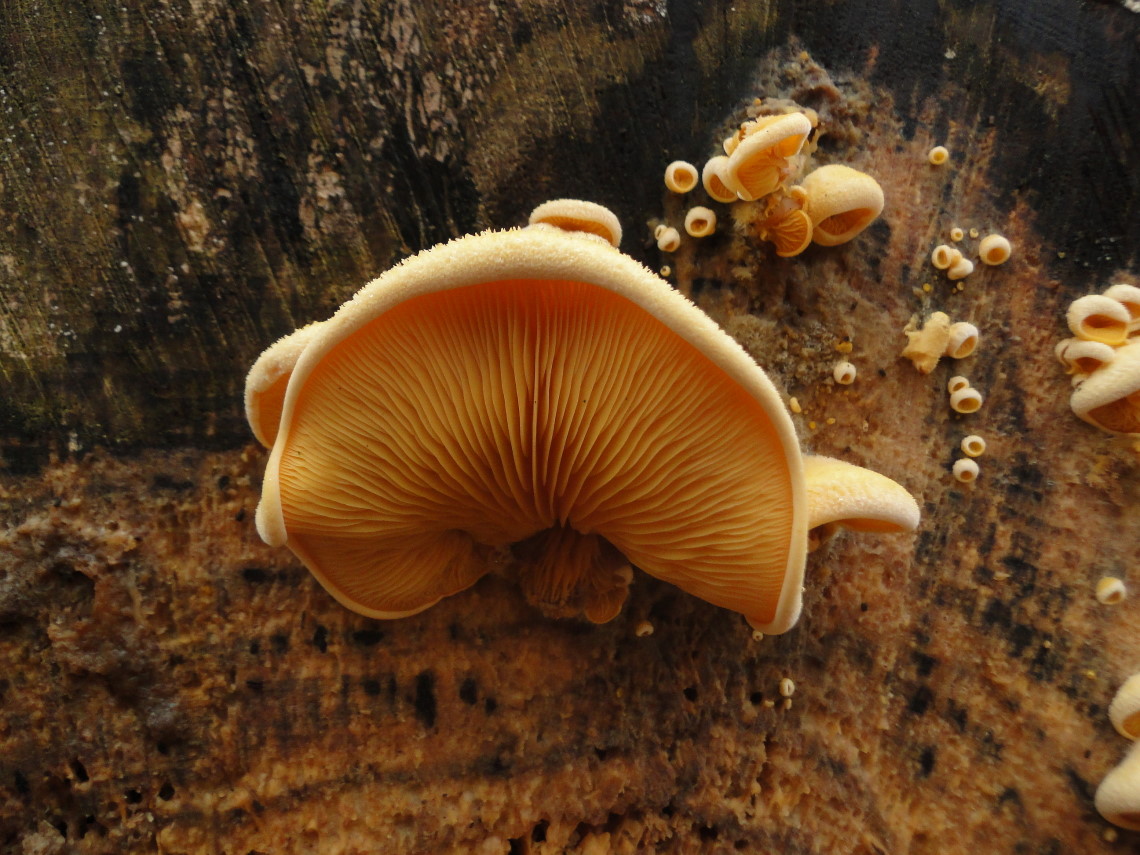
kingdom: Fungi
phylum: Basidiomycota
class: Agaricomycetes
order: Agaricales
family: Phyllotopsidaceae
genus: Phyllotopsis
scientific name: Phyllotopsis nidulans
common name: okkerblad
